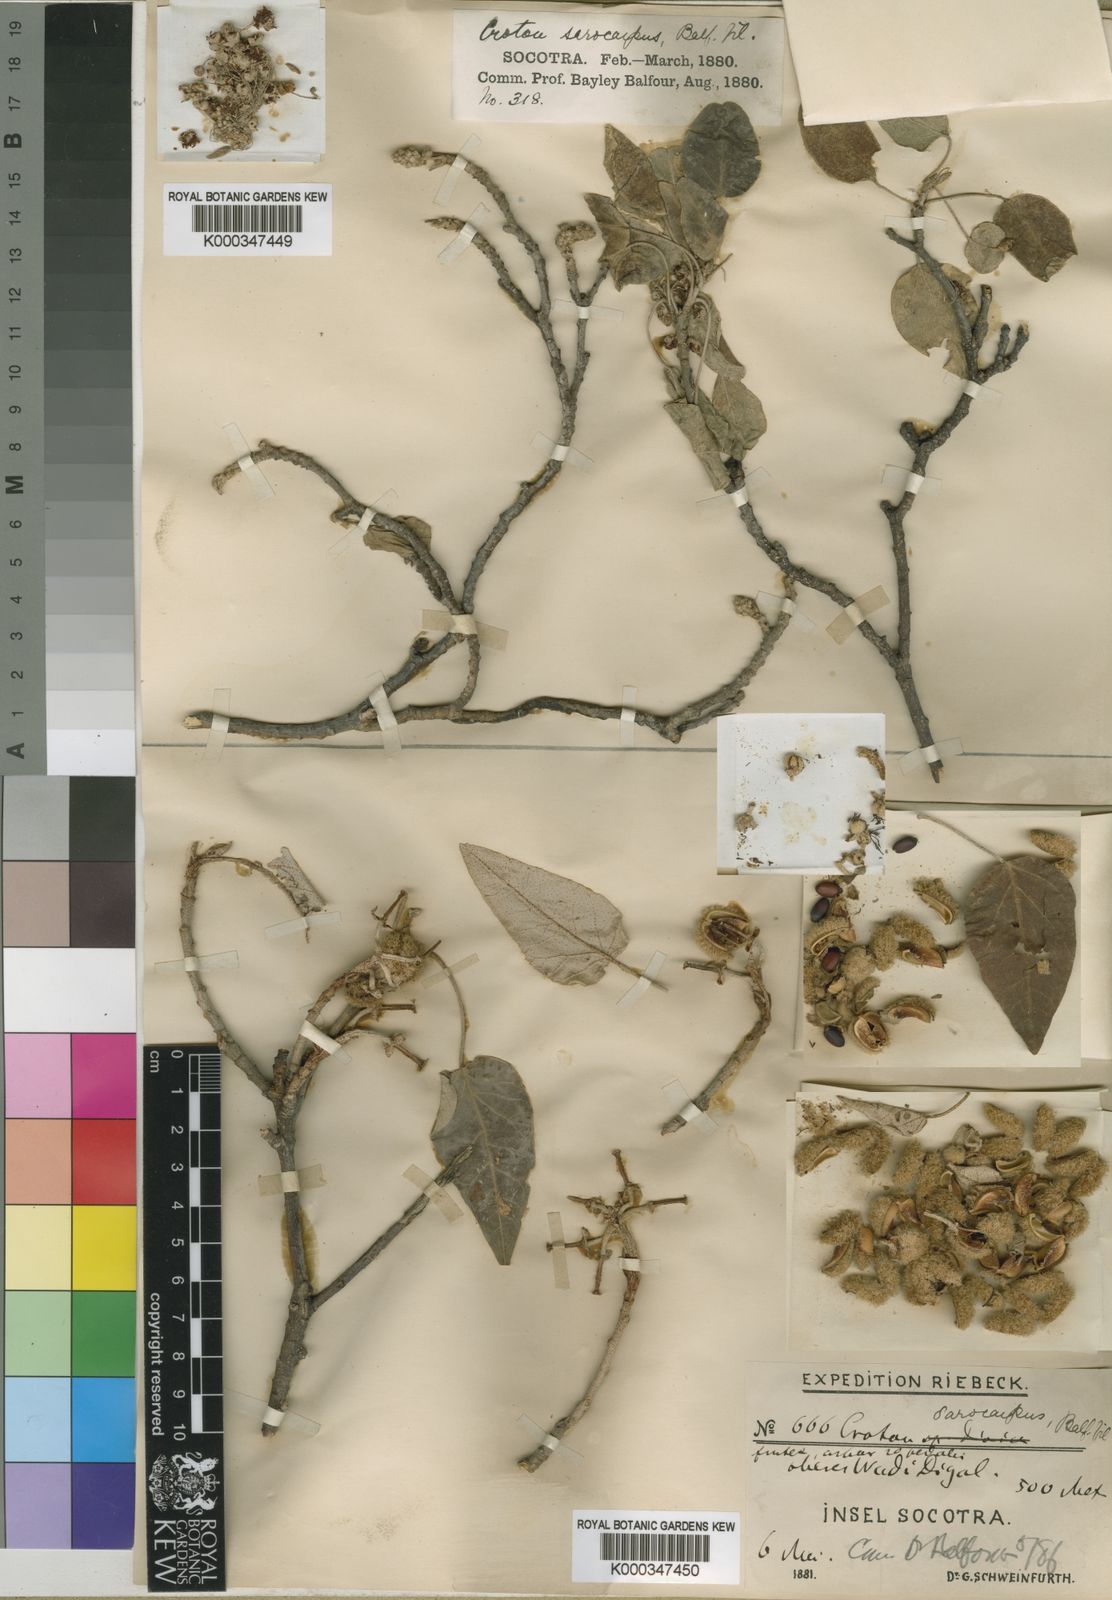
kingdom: Plantae
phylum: Tracheophyta
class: Magnoliopsida
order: Malpighiales
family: Euphorbiaceae
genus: Croton
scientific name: Croton sarcocarpus
